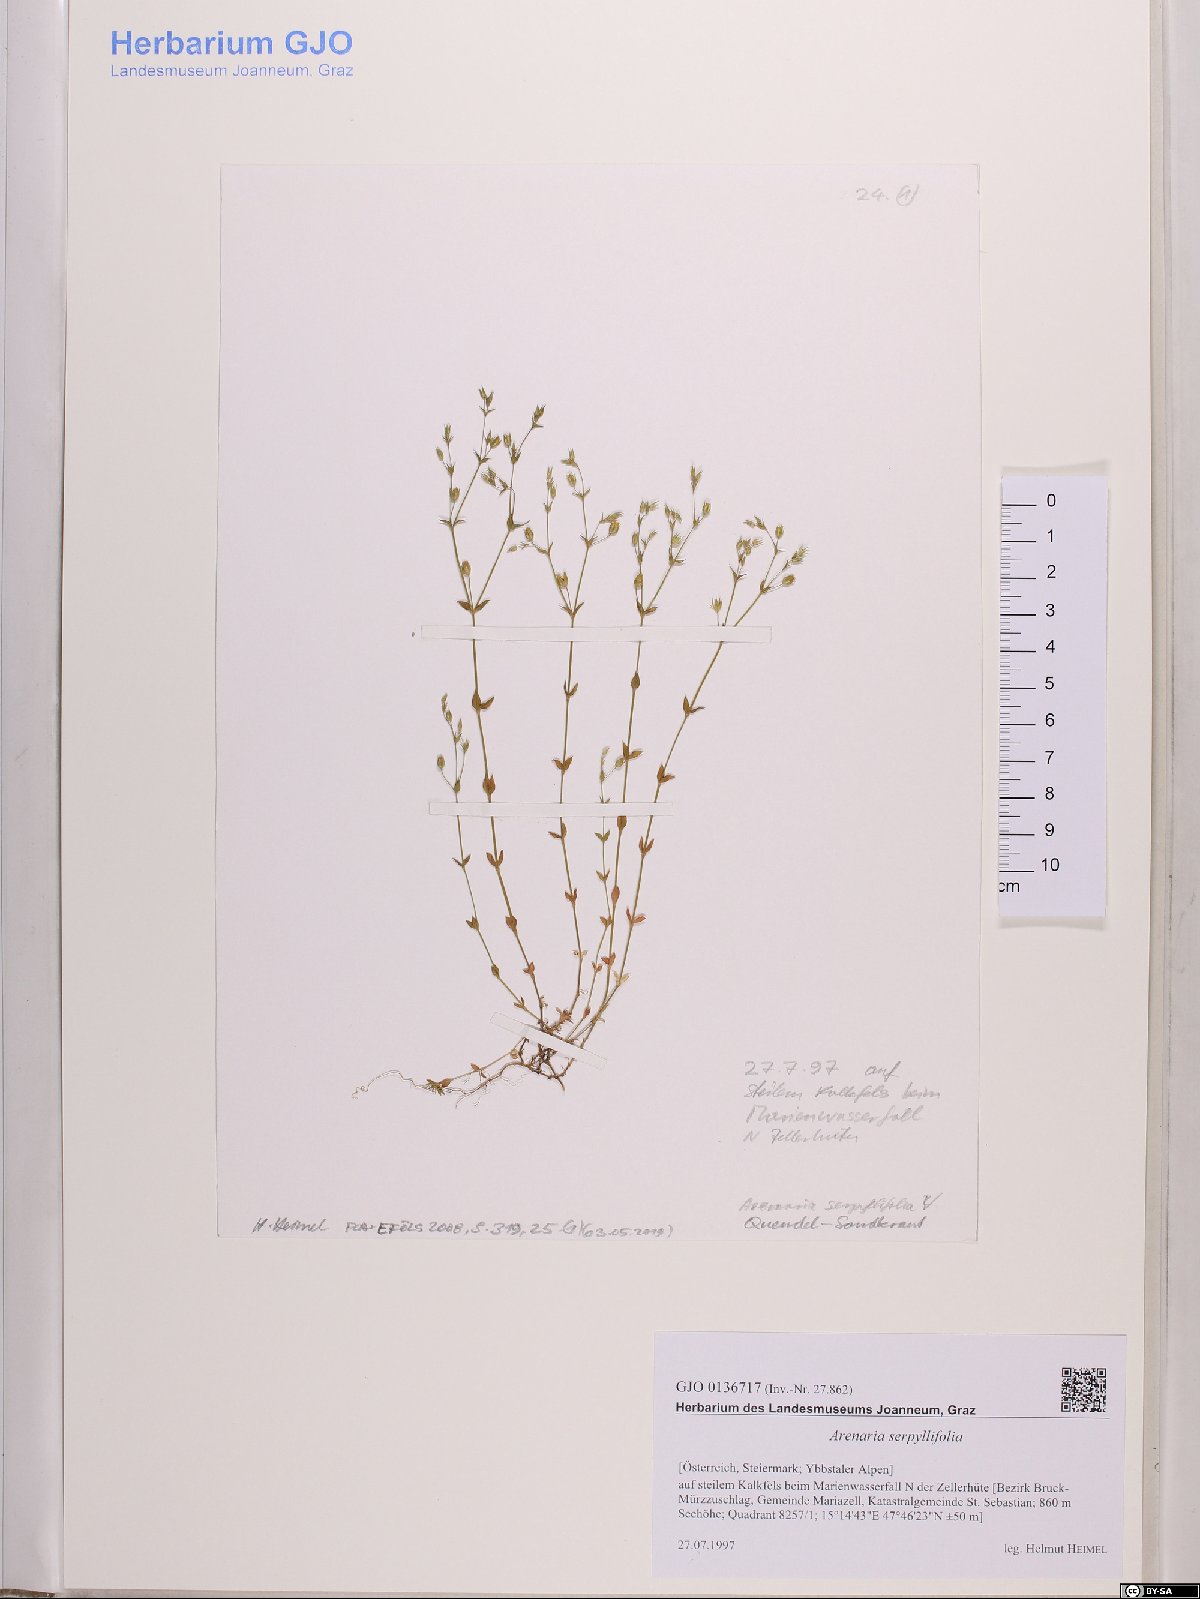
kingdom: Plantae
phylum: Tracheophyta
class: Magnoliopsida
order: Caryophyllales
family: Caryophyllaceae
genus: Arenaria
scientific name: Arenaria serpyllifolia
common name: Thyme-leaved sandwort
